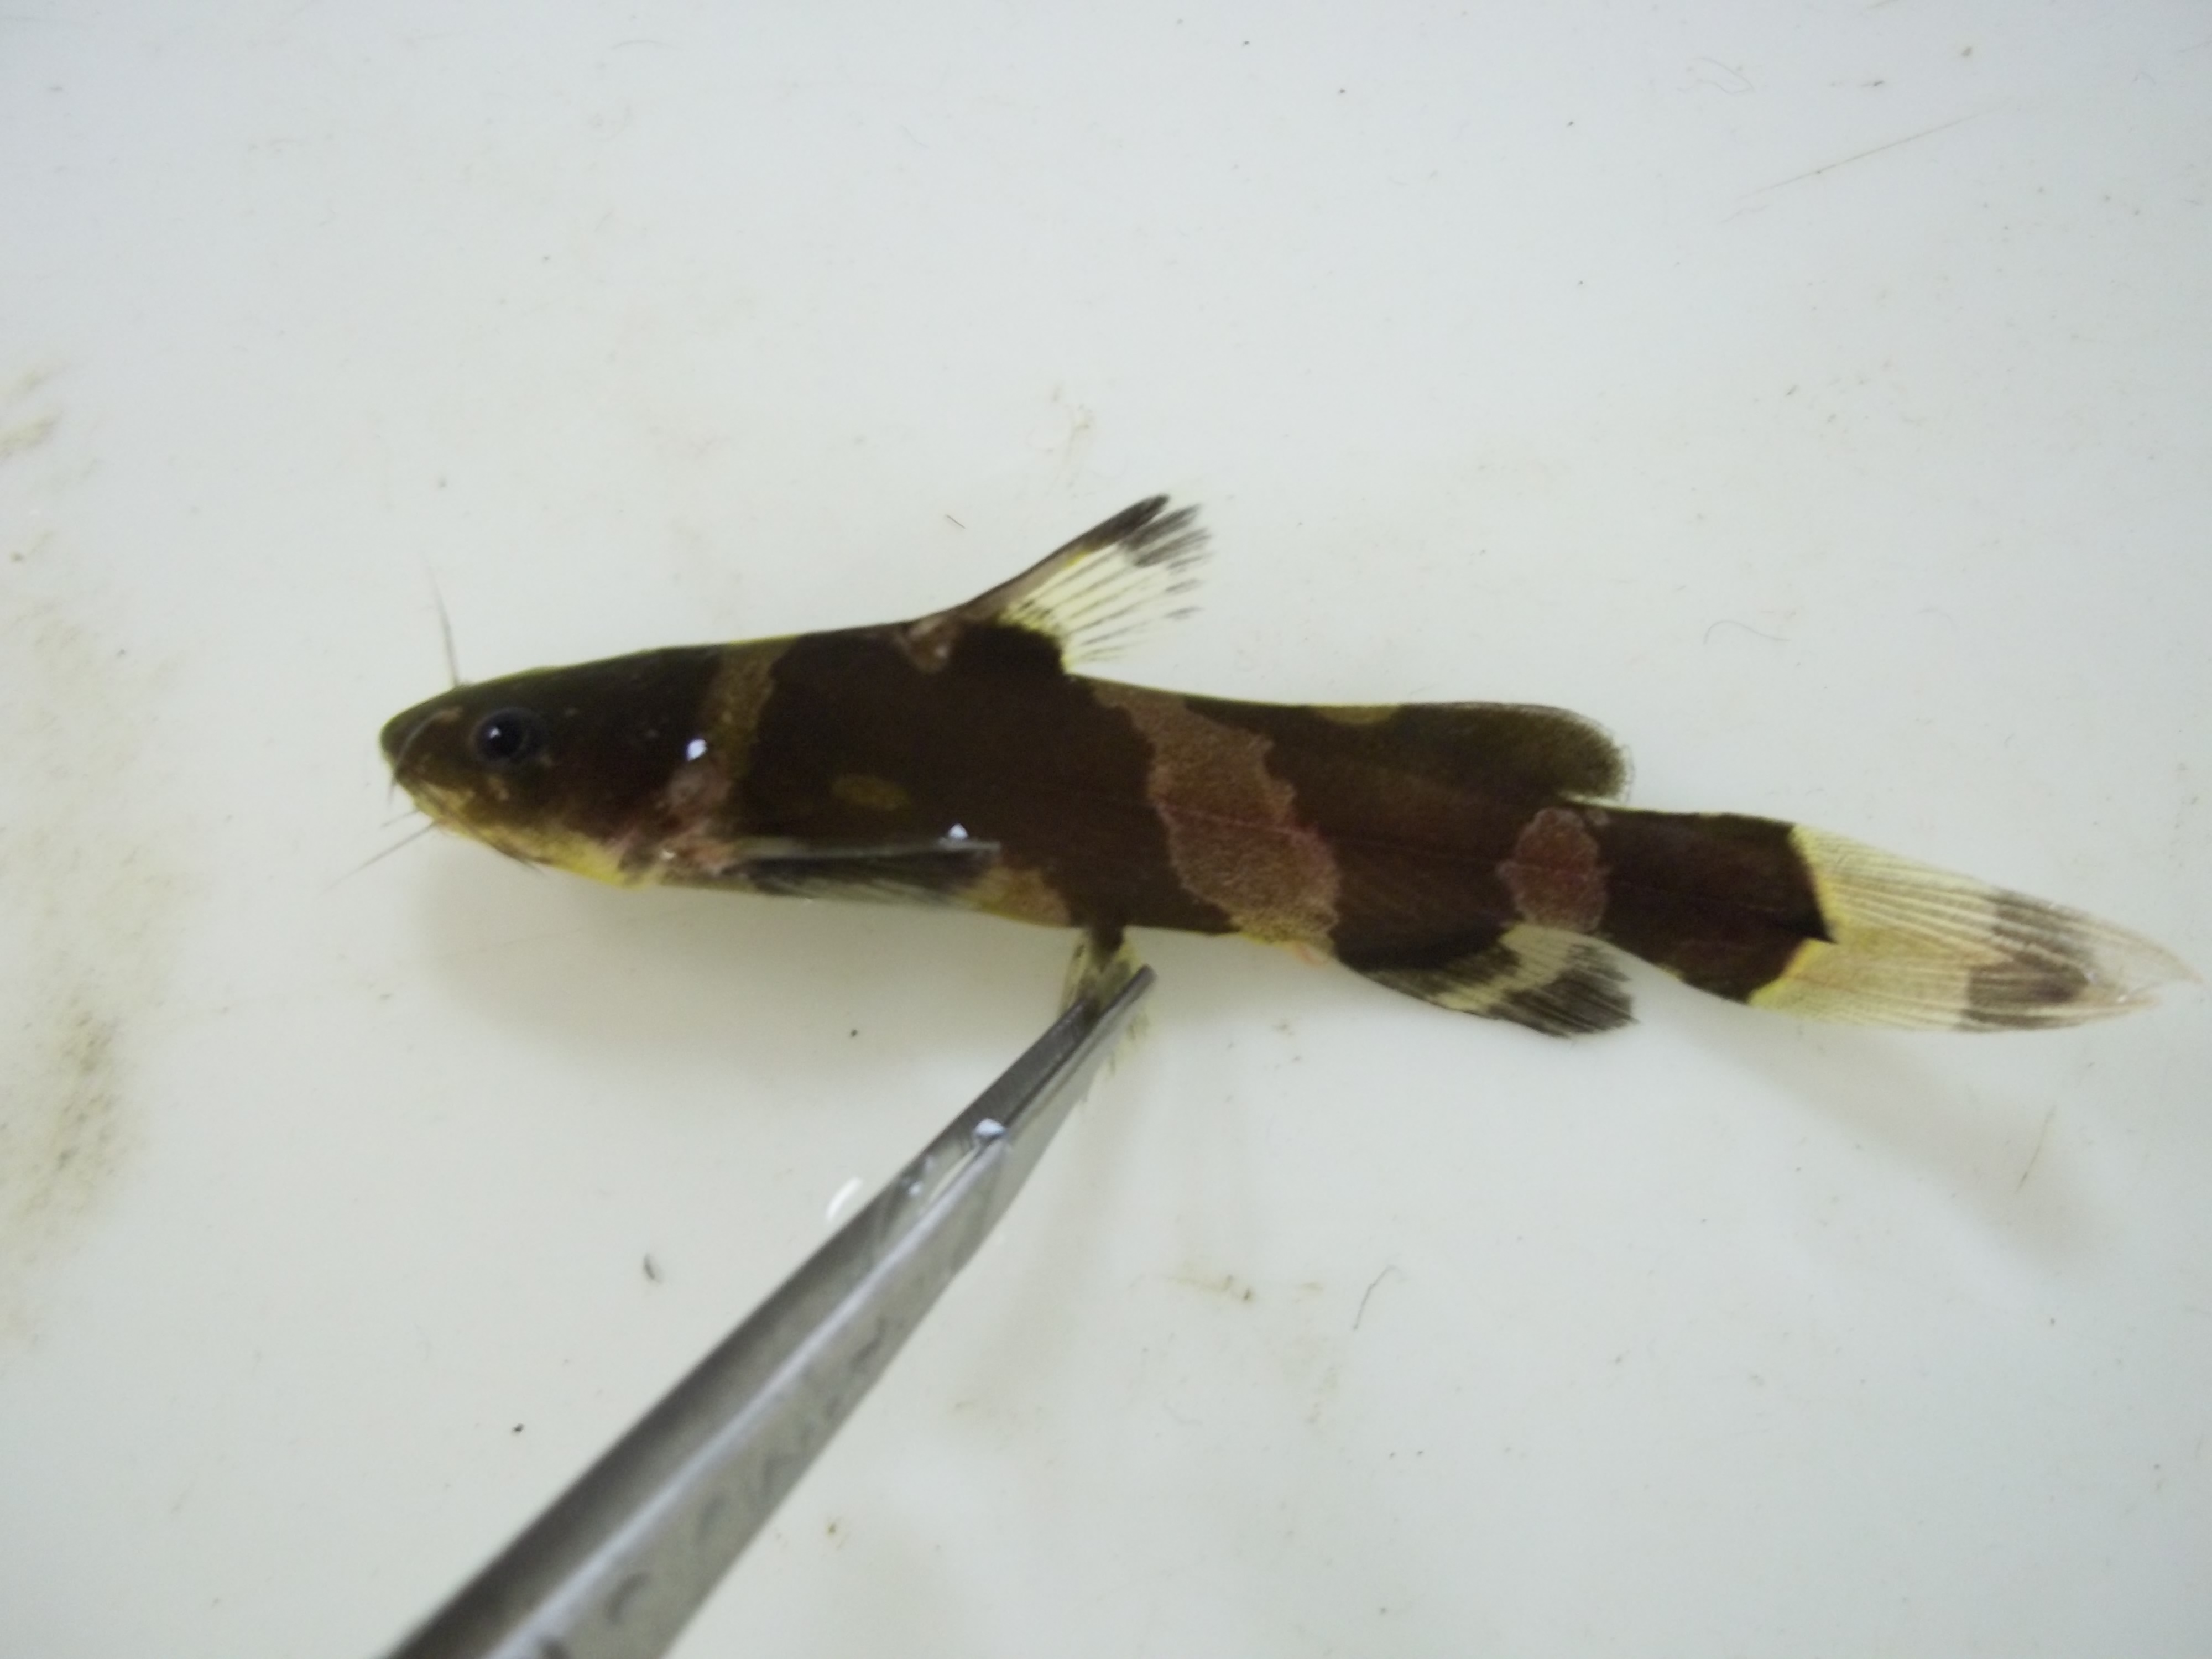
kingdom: Animalia
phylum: Chordata
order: Siluriformes
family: Bagridae
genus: Pseudomystus
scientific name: Pseudomystus
